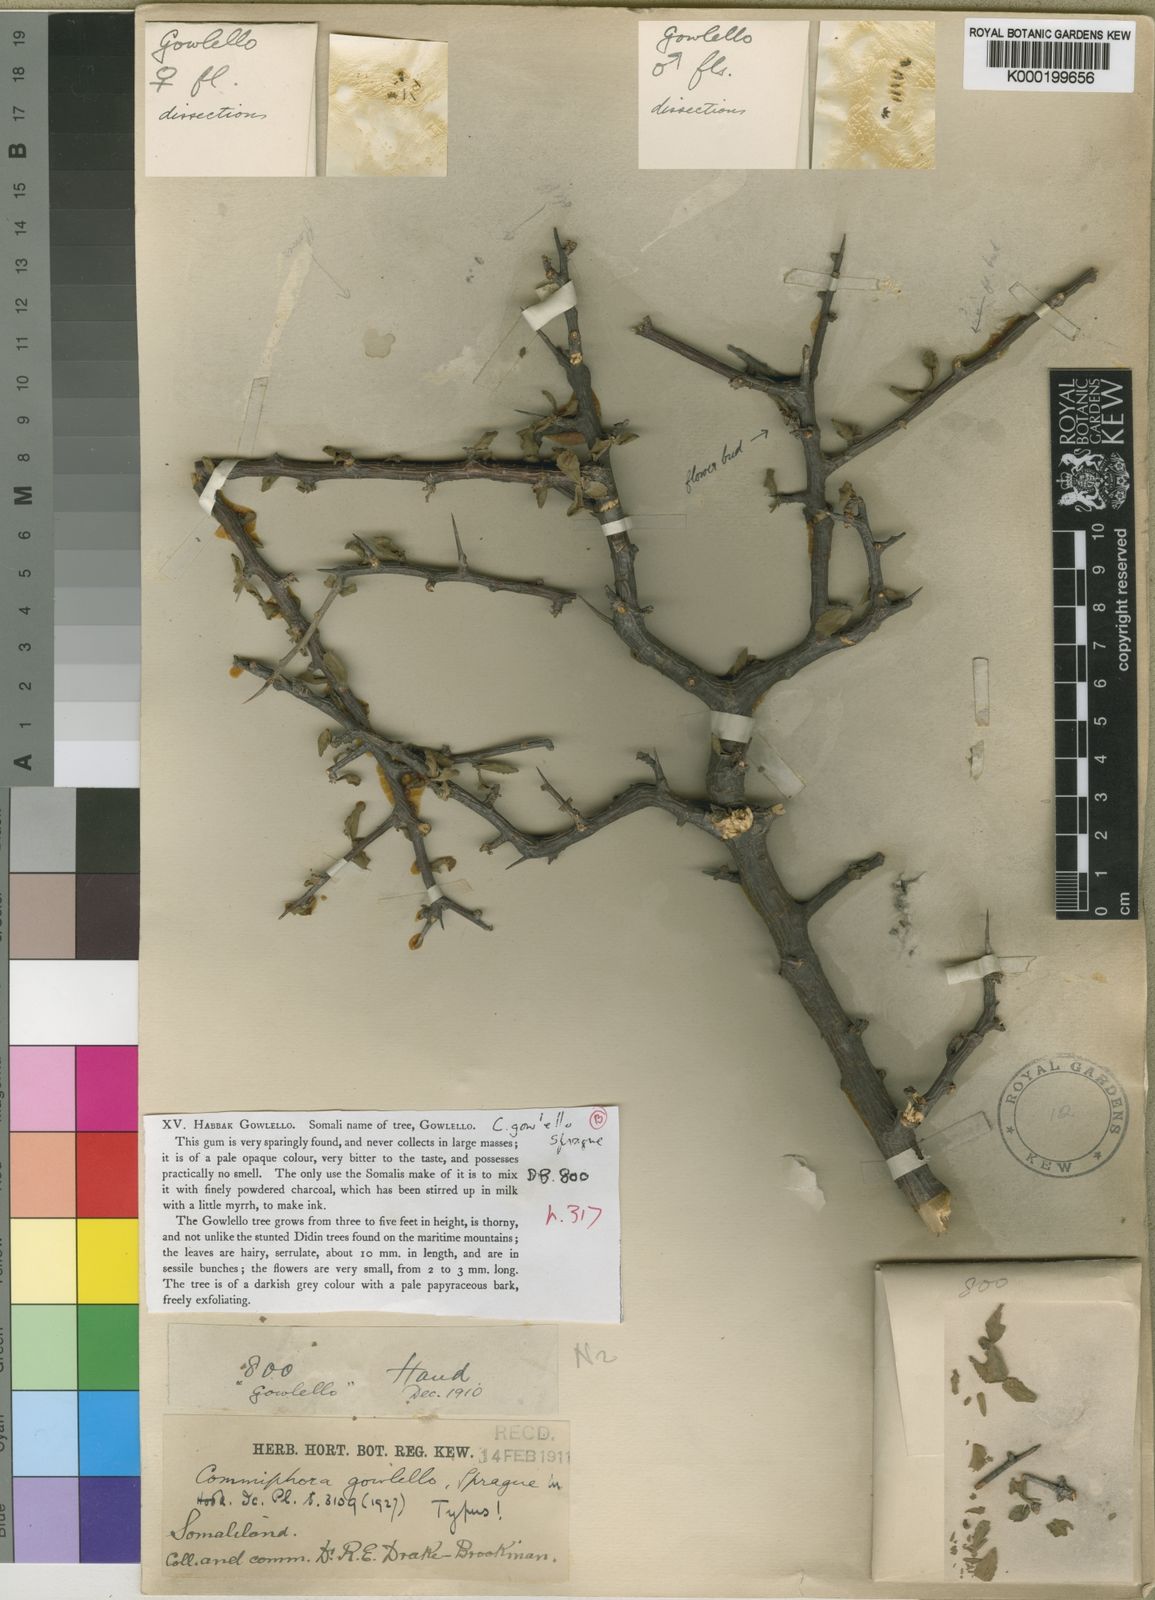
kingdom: Plantae
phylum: Tracheophyta
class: Magnoliopsida
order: Sapindales
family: Burseraceae
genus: Commiphora
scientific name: Commiphora kua
